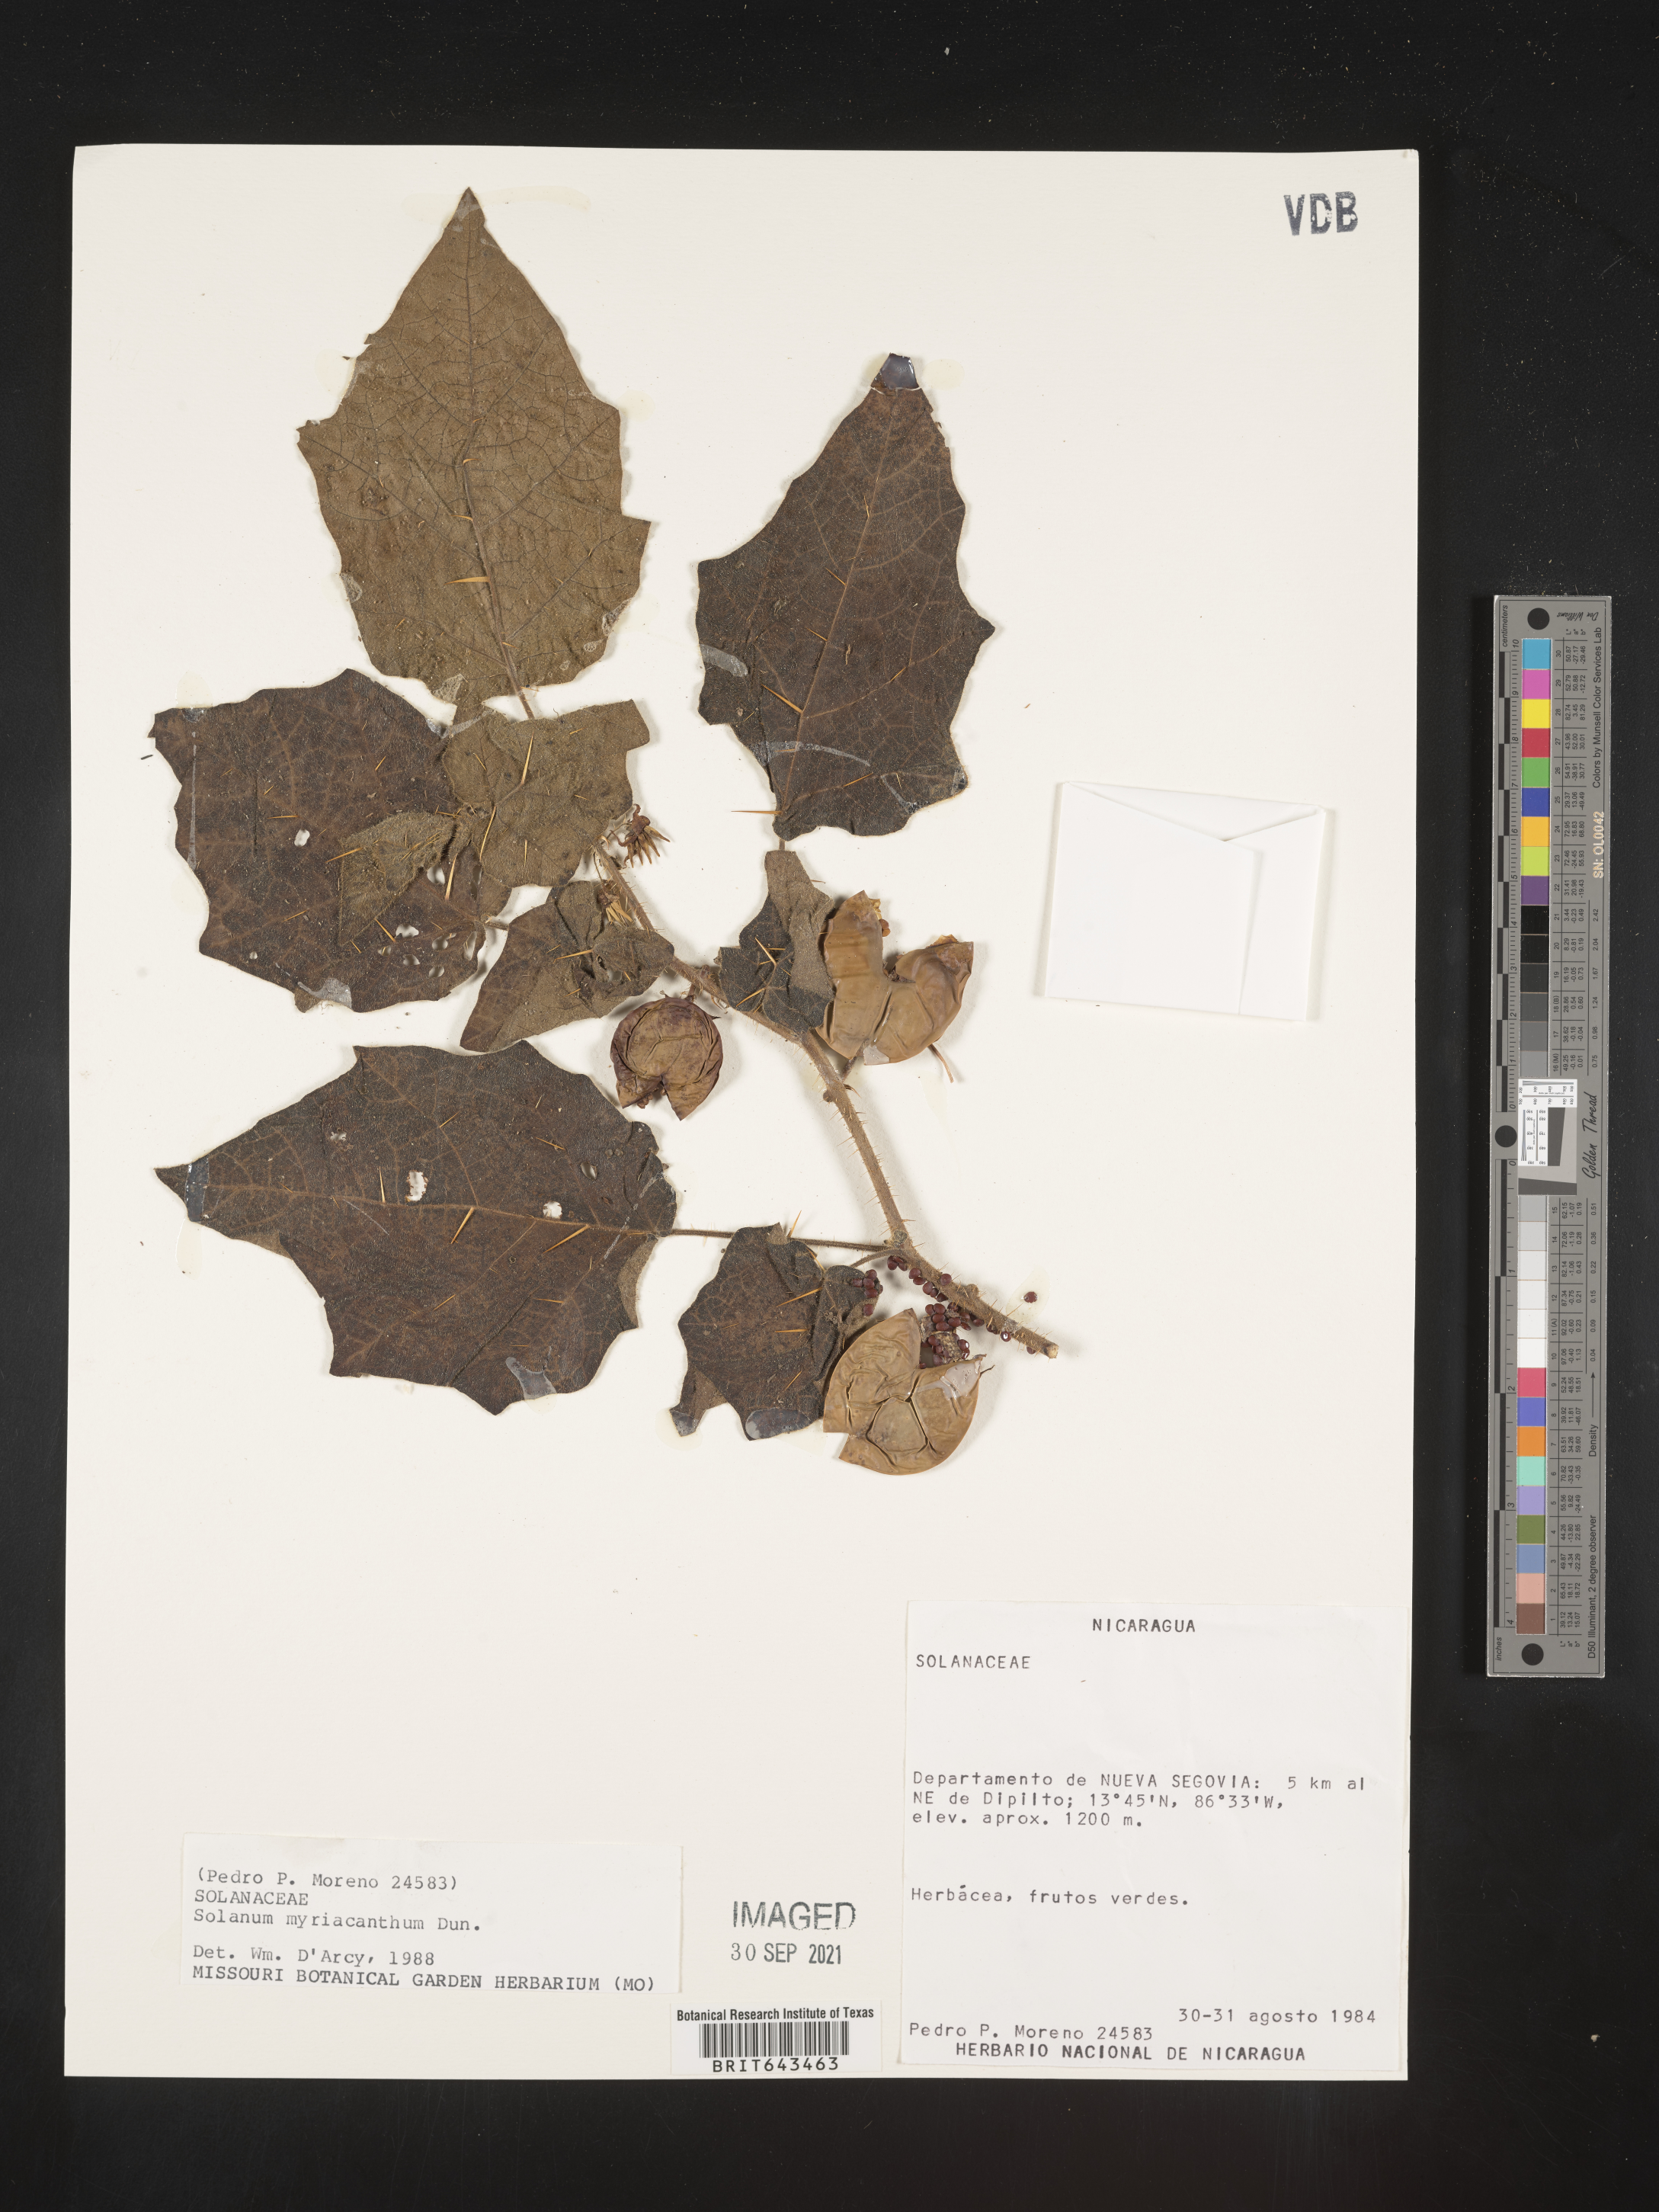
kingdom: Plantae
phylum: Tracheophyta
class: Magnoliopsida
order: Solanales
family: Solanaceae
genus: Solanum
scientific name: Solanum
